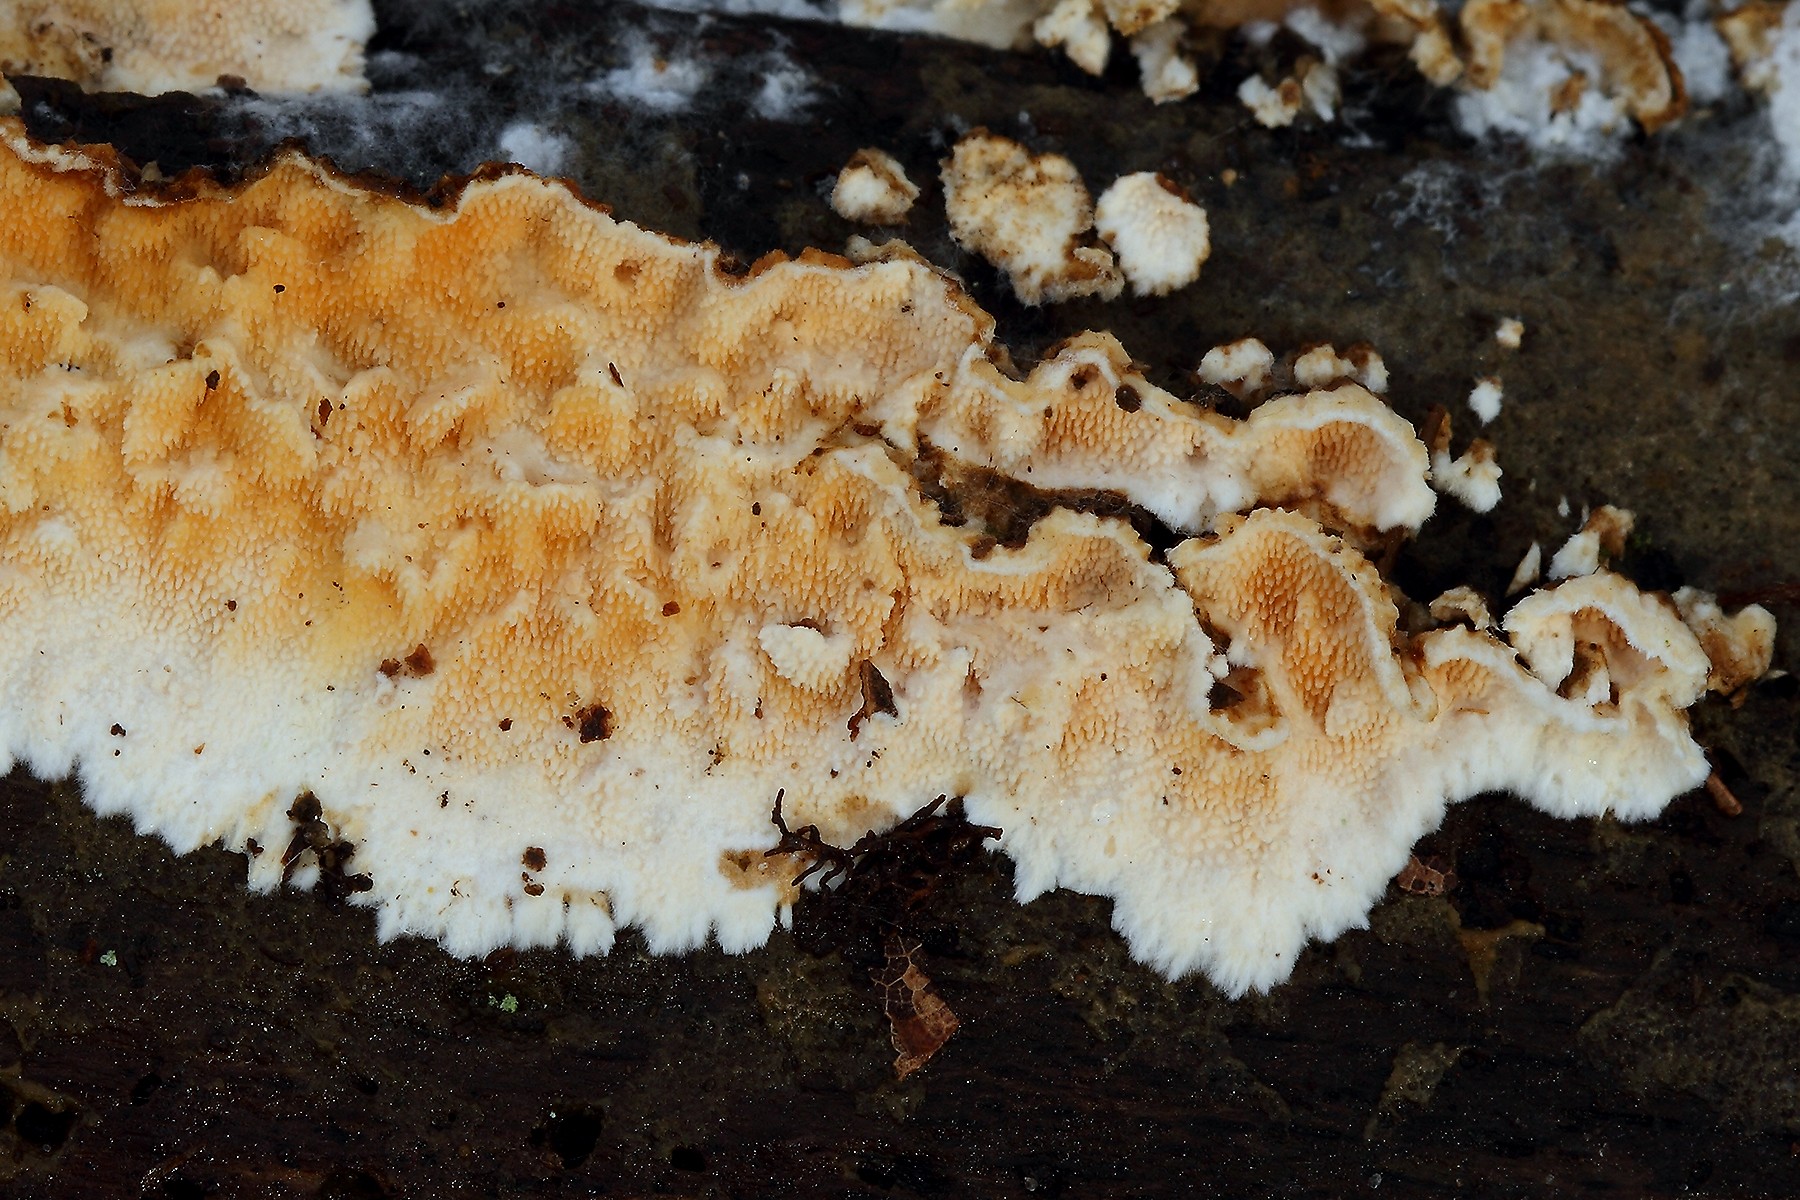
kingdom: Fungi
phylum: Basidiomycota
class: Agaricomycetes
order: Polyporales
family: Steccherinaceae
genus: Steccherinum
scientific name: Steccherinum ochraceum
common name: almindelig skønpig
